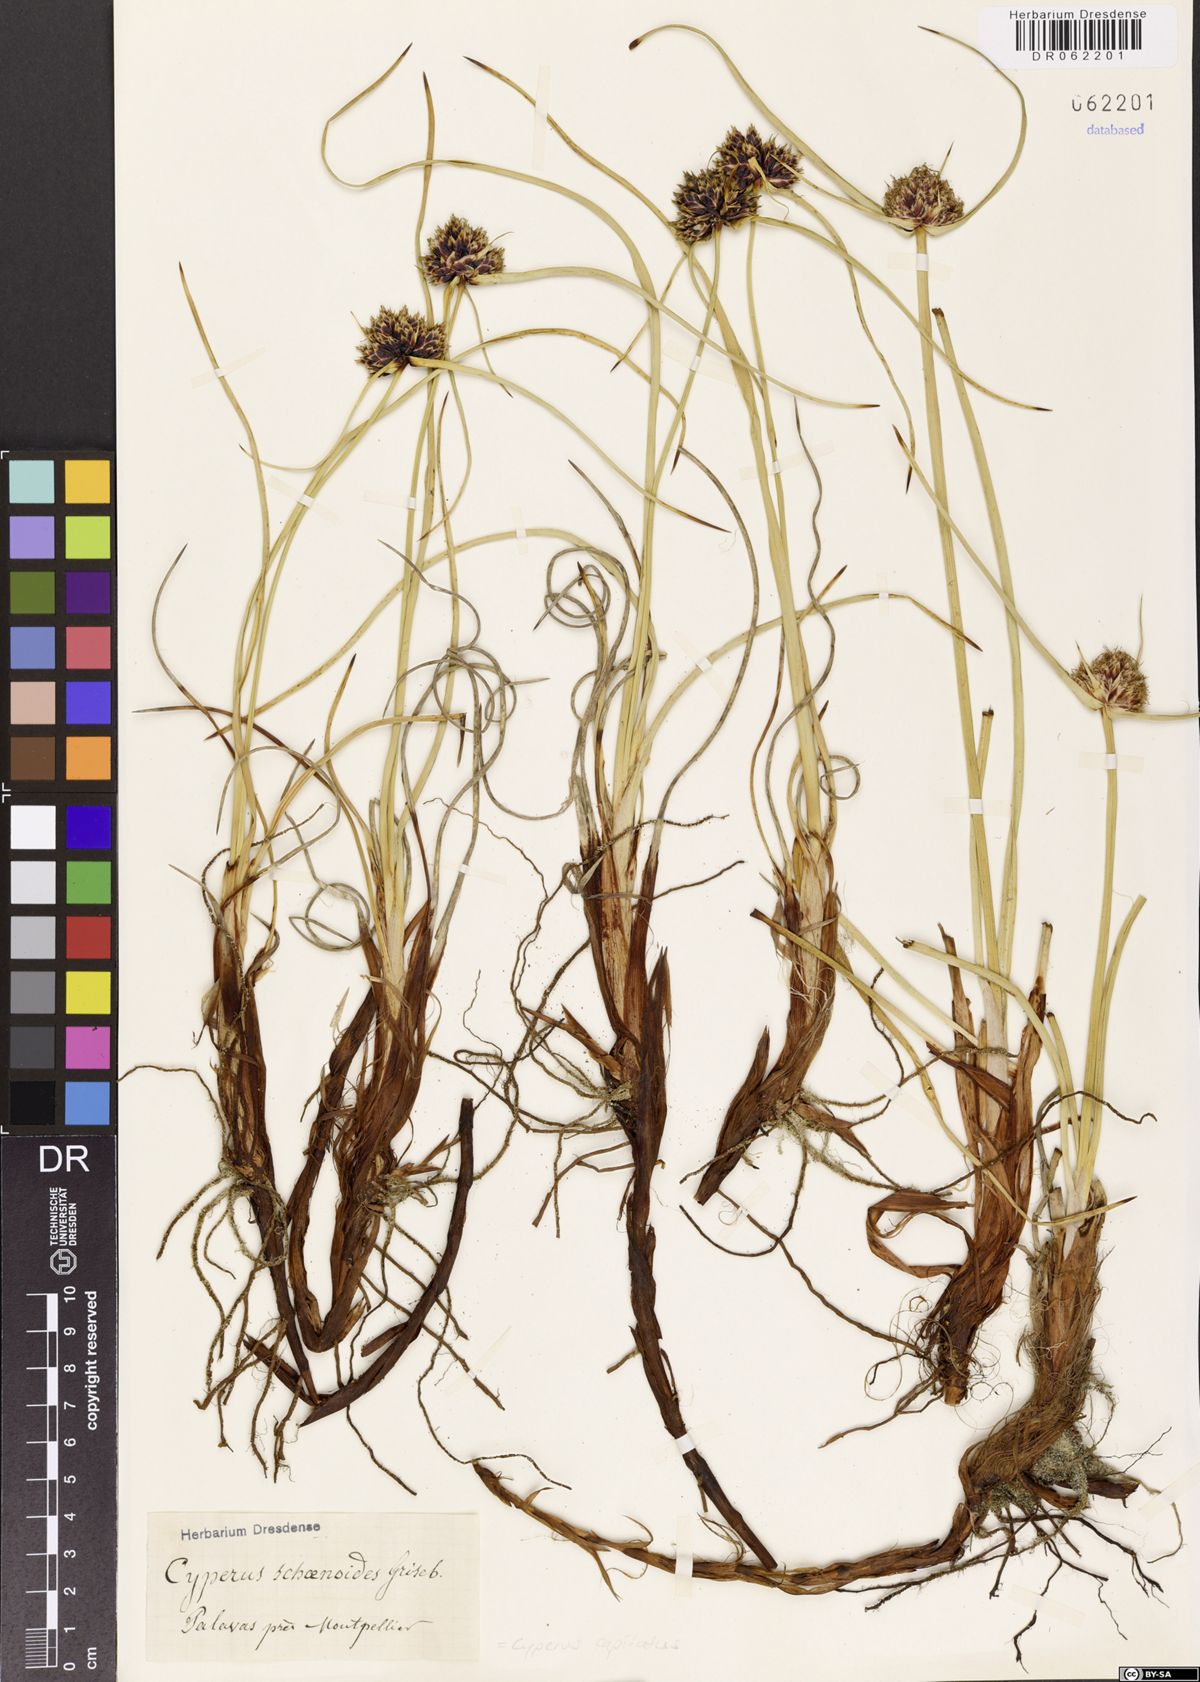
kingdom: Plantae
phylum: Tracheophyta
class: Liliopsida
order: Poales
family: Cyperaceae
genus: Cyperus
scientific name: Cyperus capitatus
